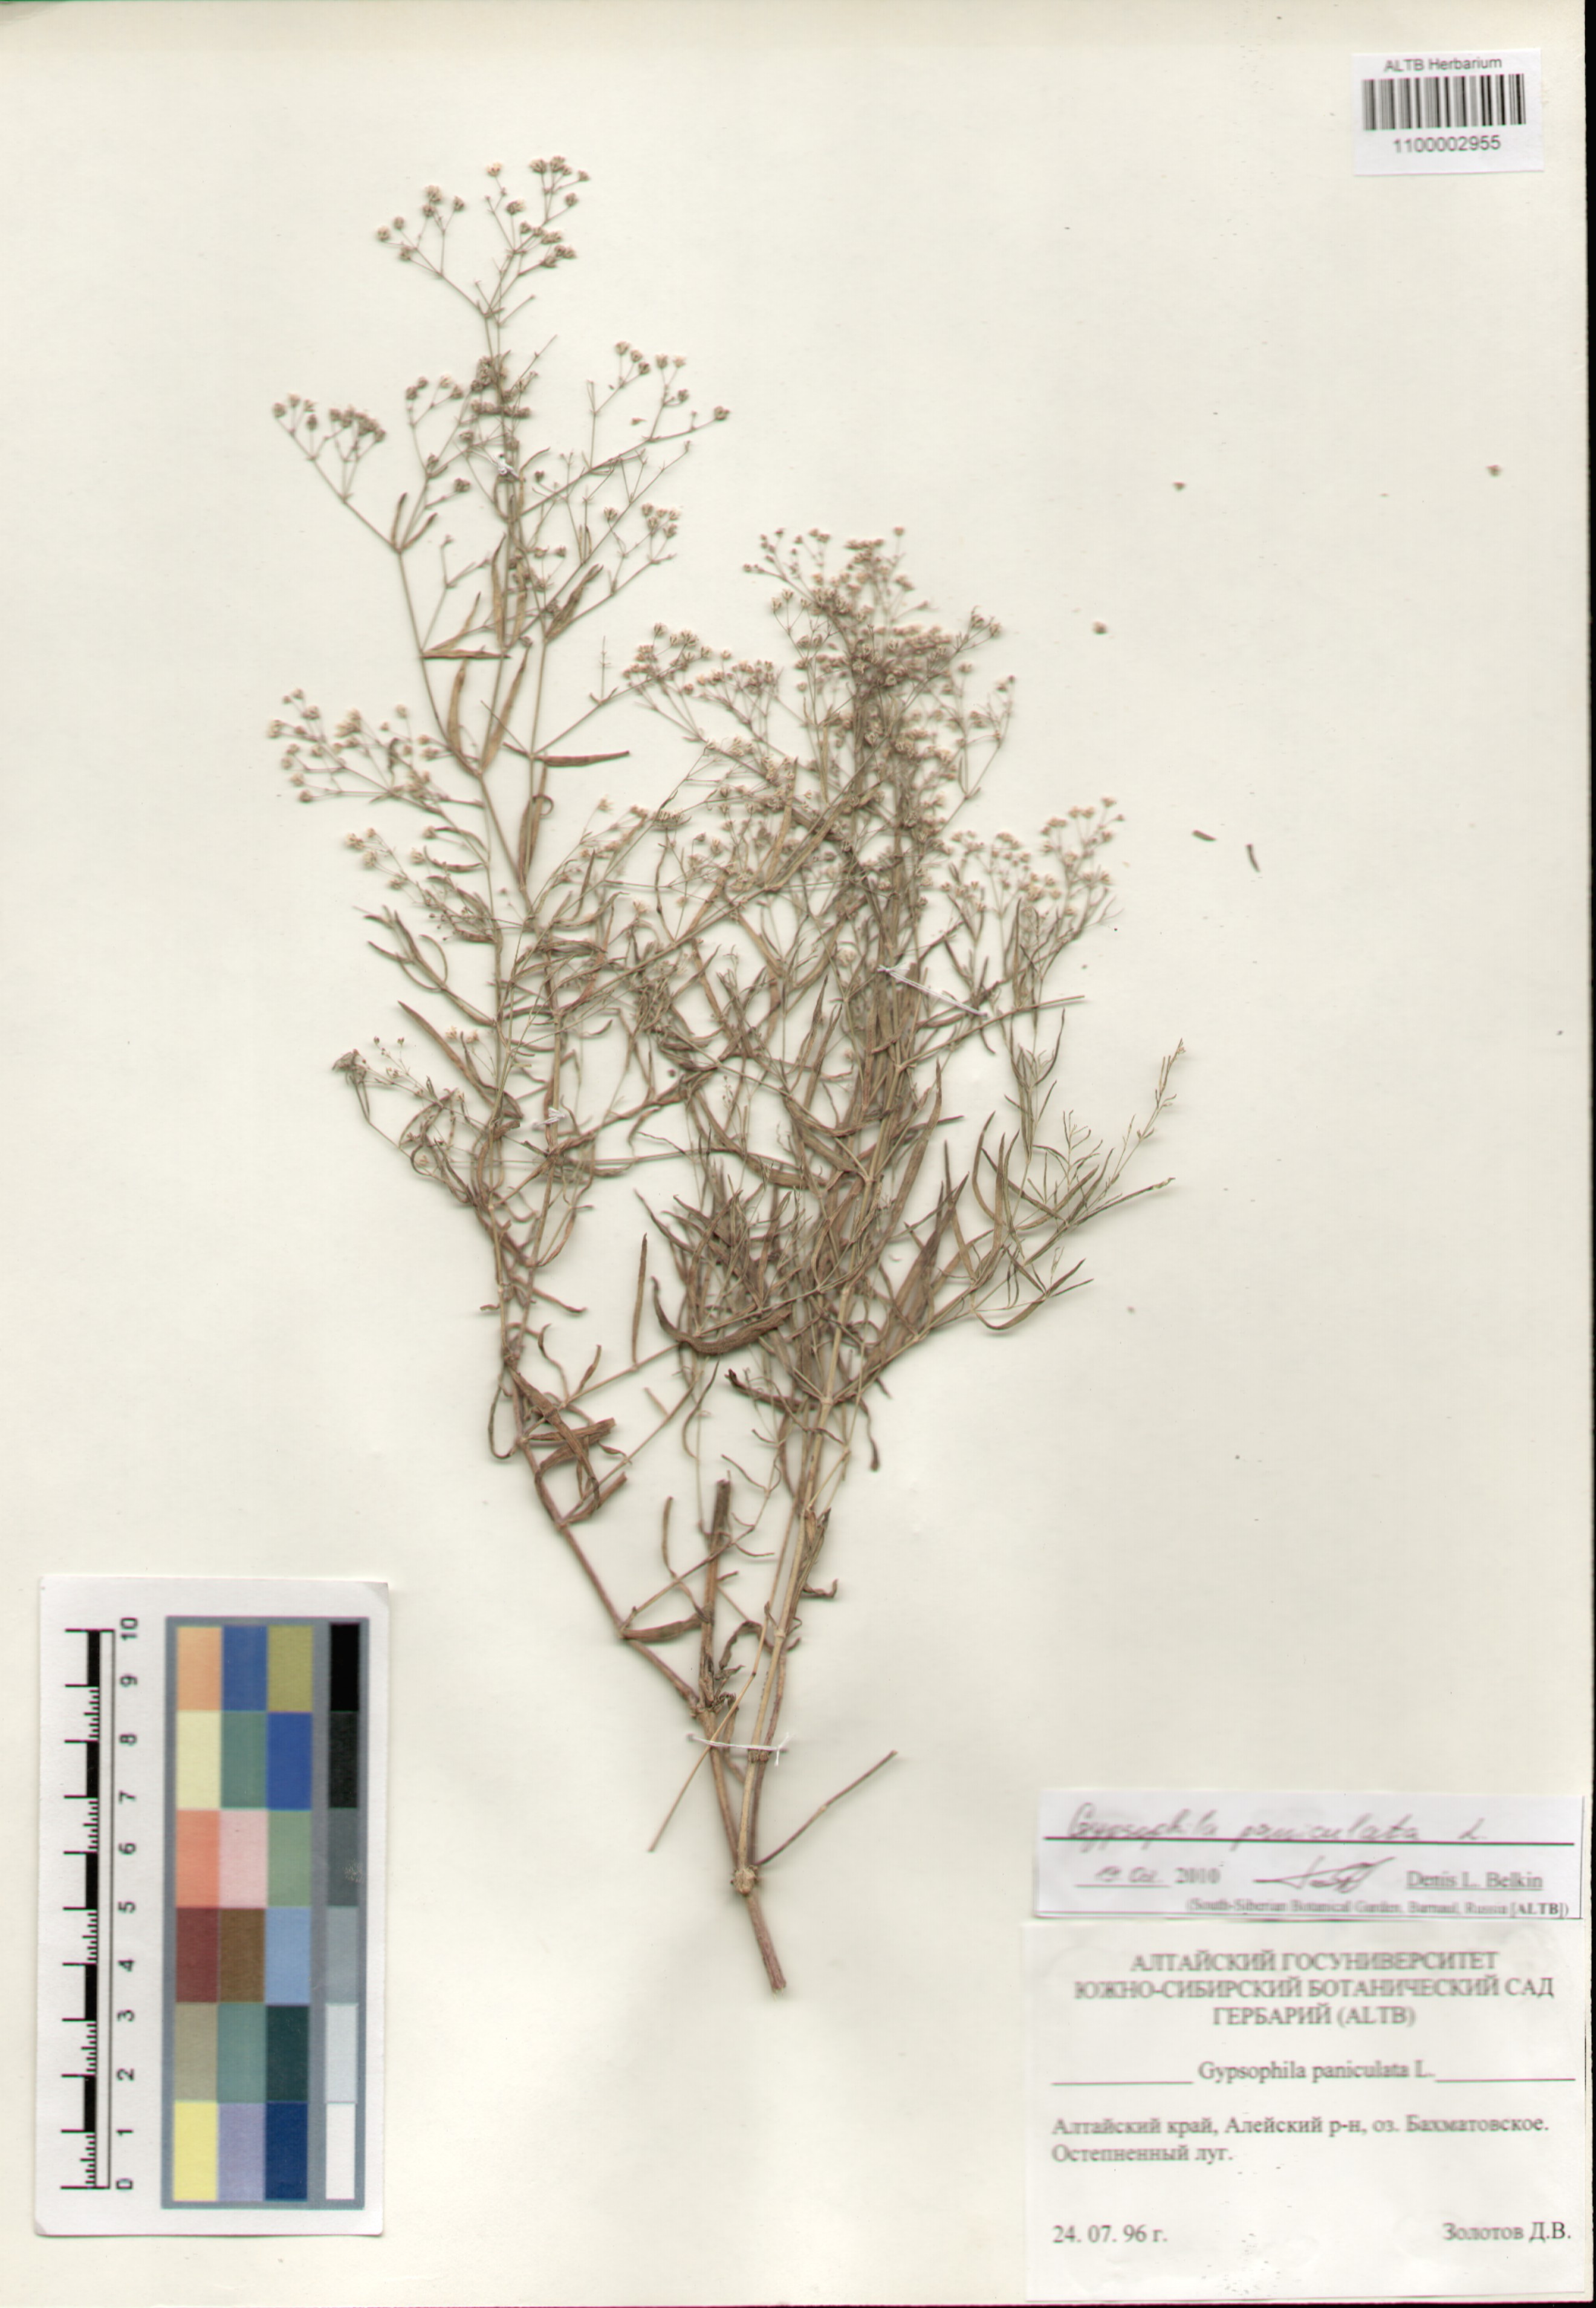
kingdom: Plantae
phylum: Tracheophyta
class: Magnoliopsida
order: Caryophyllales
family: Caryophyllaceae
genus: Gypsophila
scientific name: Gypsophila paniculata
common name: Baby's-breath
